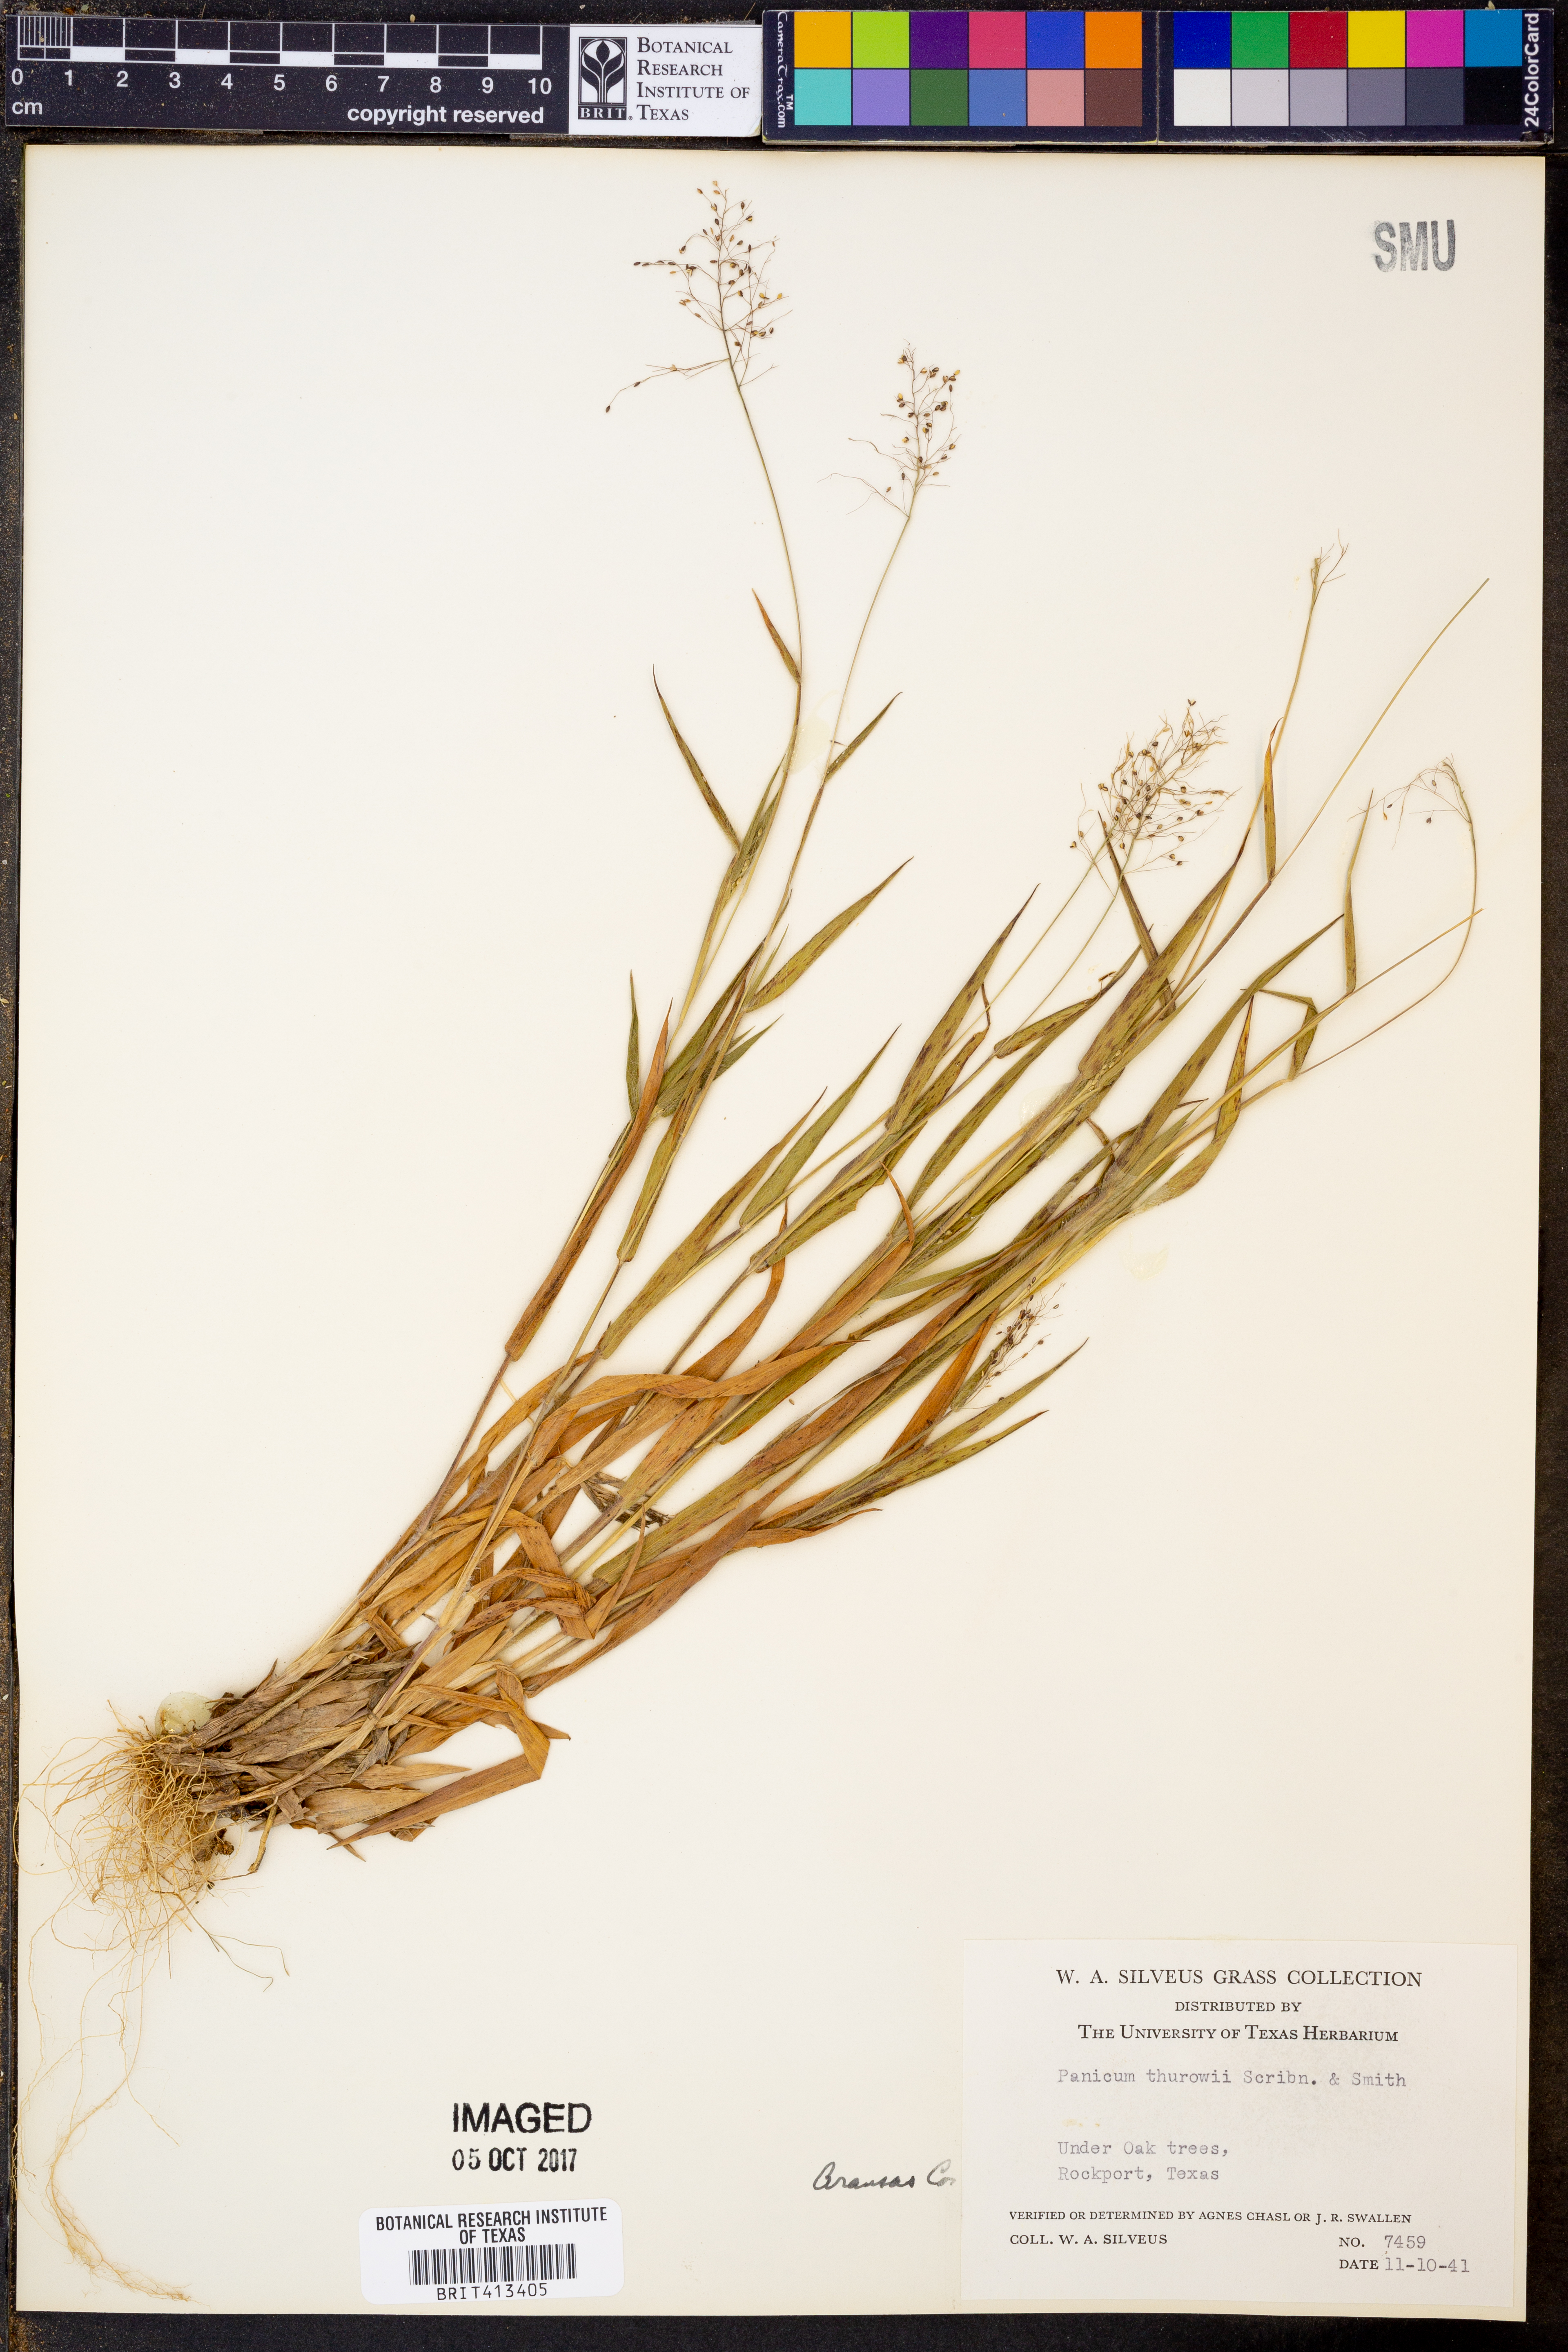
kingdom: Plantae
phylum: Tracheophyta
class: Liliopsida
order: Poales
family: Poaceae
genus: Dichanthelium
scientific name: Dichanthelium acuminatum
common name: Hairy panic grass
